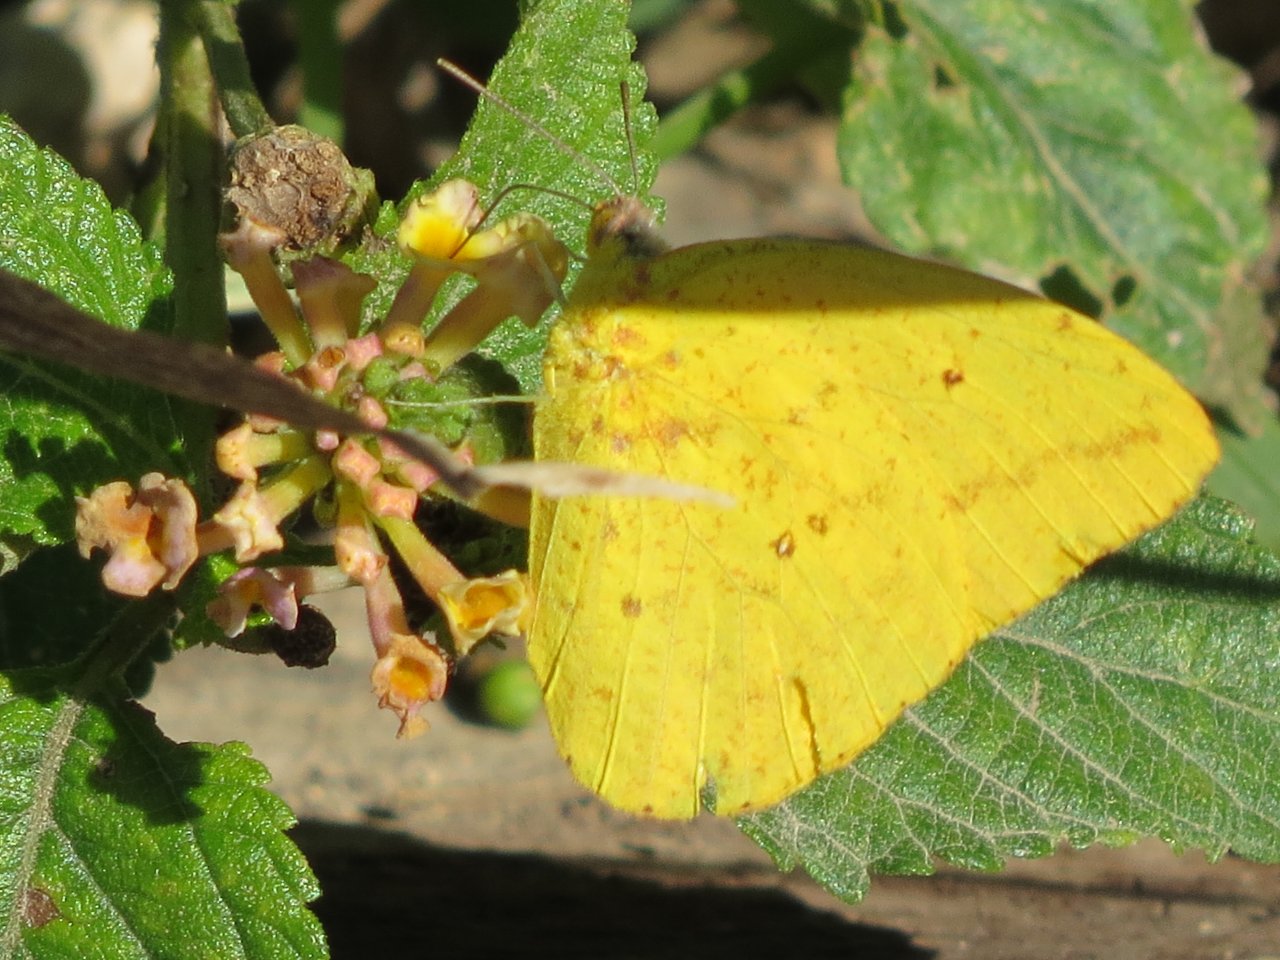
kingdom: Animalia
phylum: Arthropoda
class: Insecta
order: Lepidoptera
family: Pieridae
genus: Phoebis
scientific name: Phoebis agarithe
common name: Large Orange Sulphur
